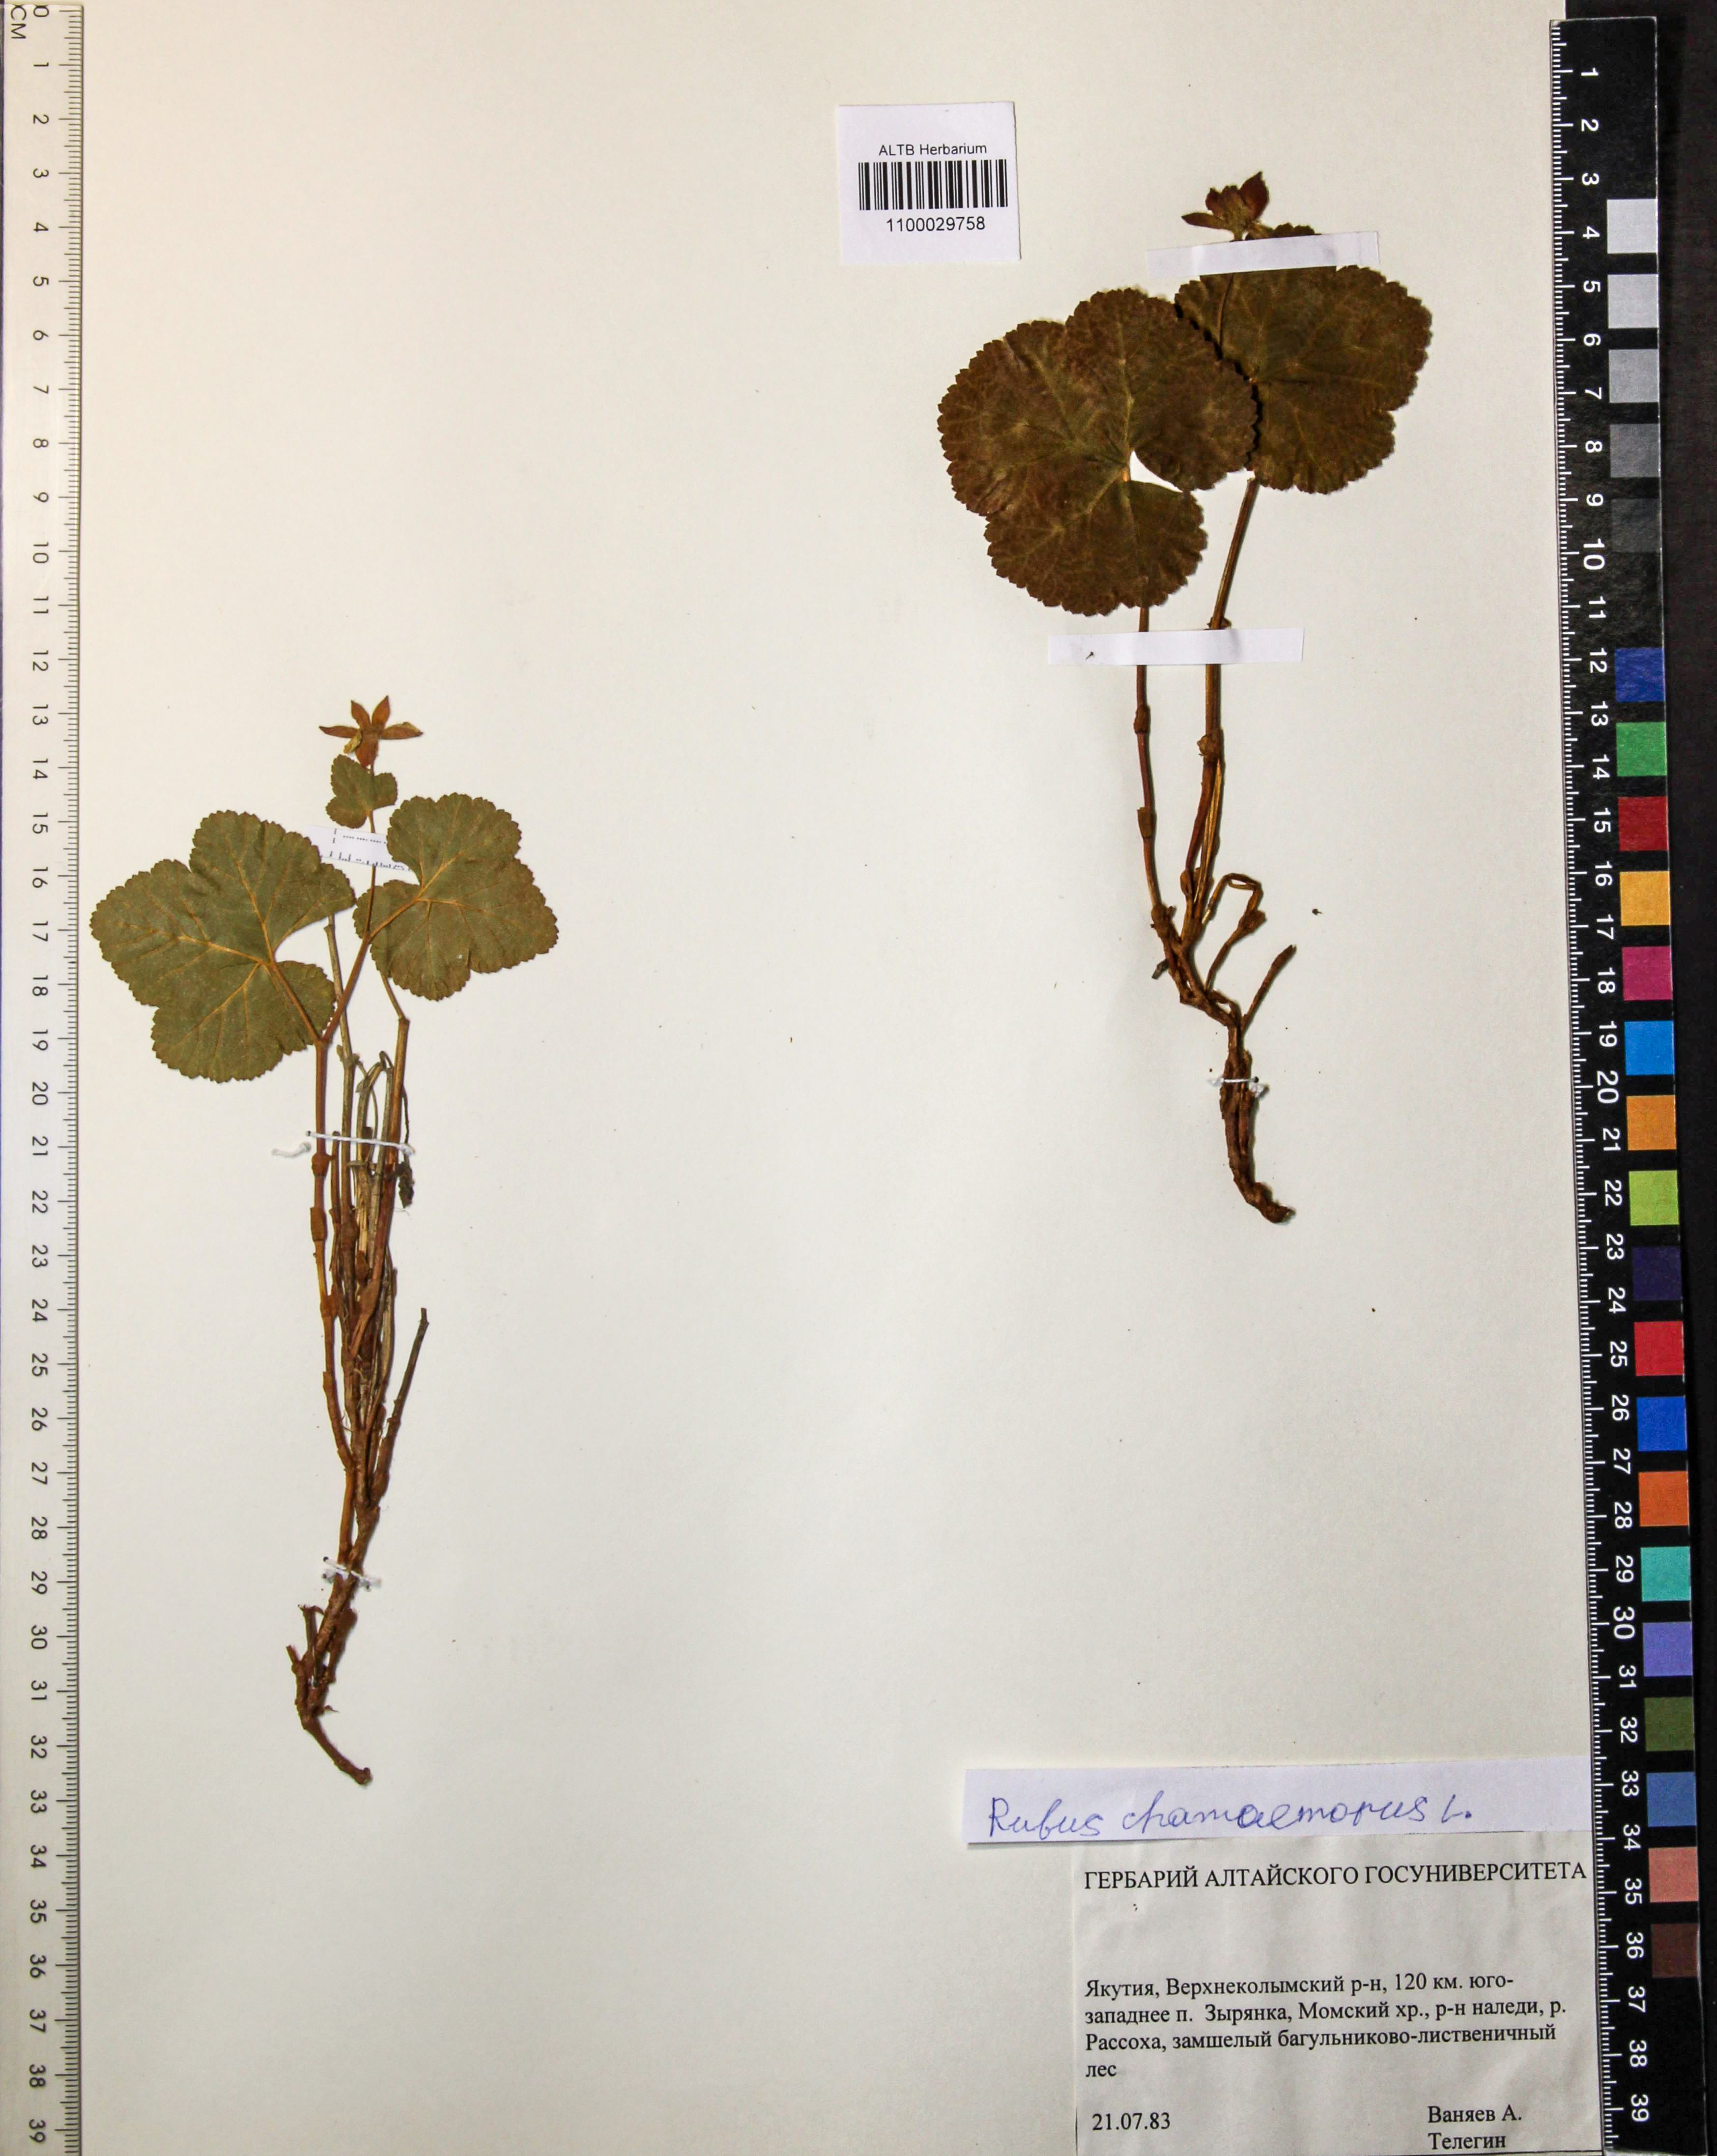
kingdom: Plantae
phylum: Tracheophyta
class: Magnoliopsida
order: Rosales
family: Rosaceae
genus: Rubus
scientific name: Rubus chamaemorus
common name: Cloudberry
